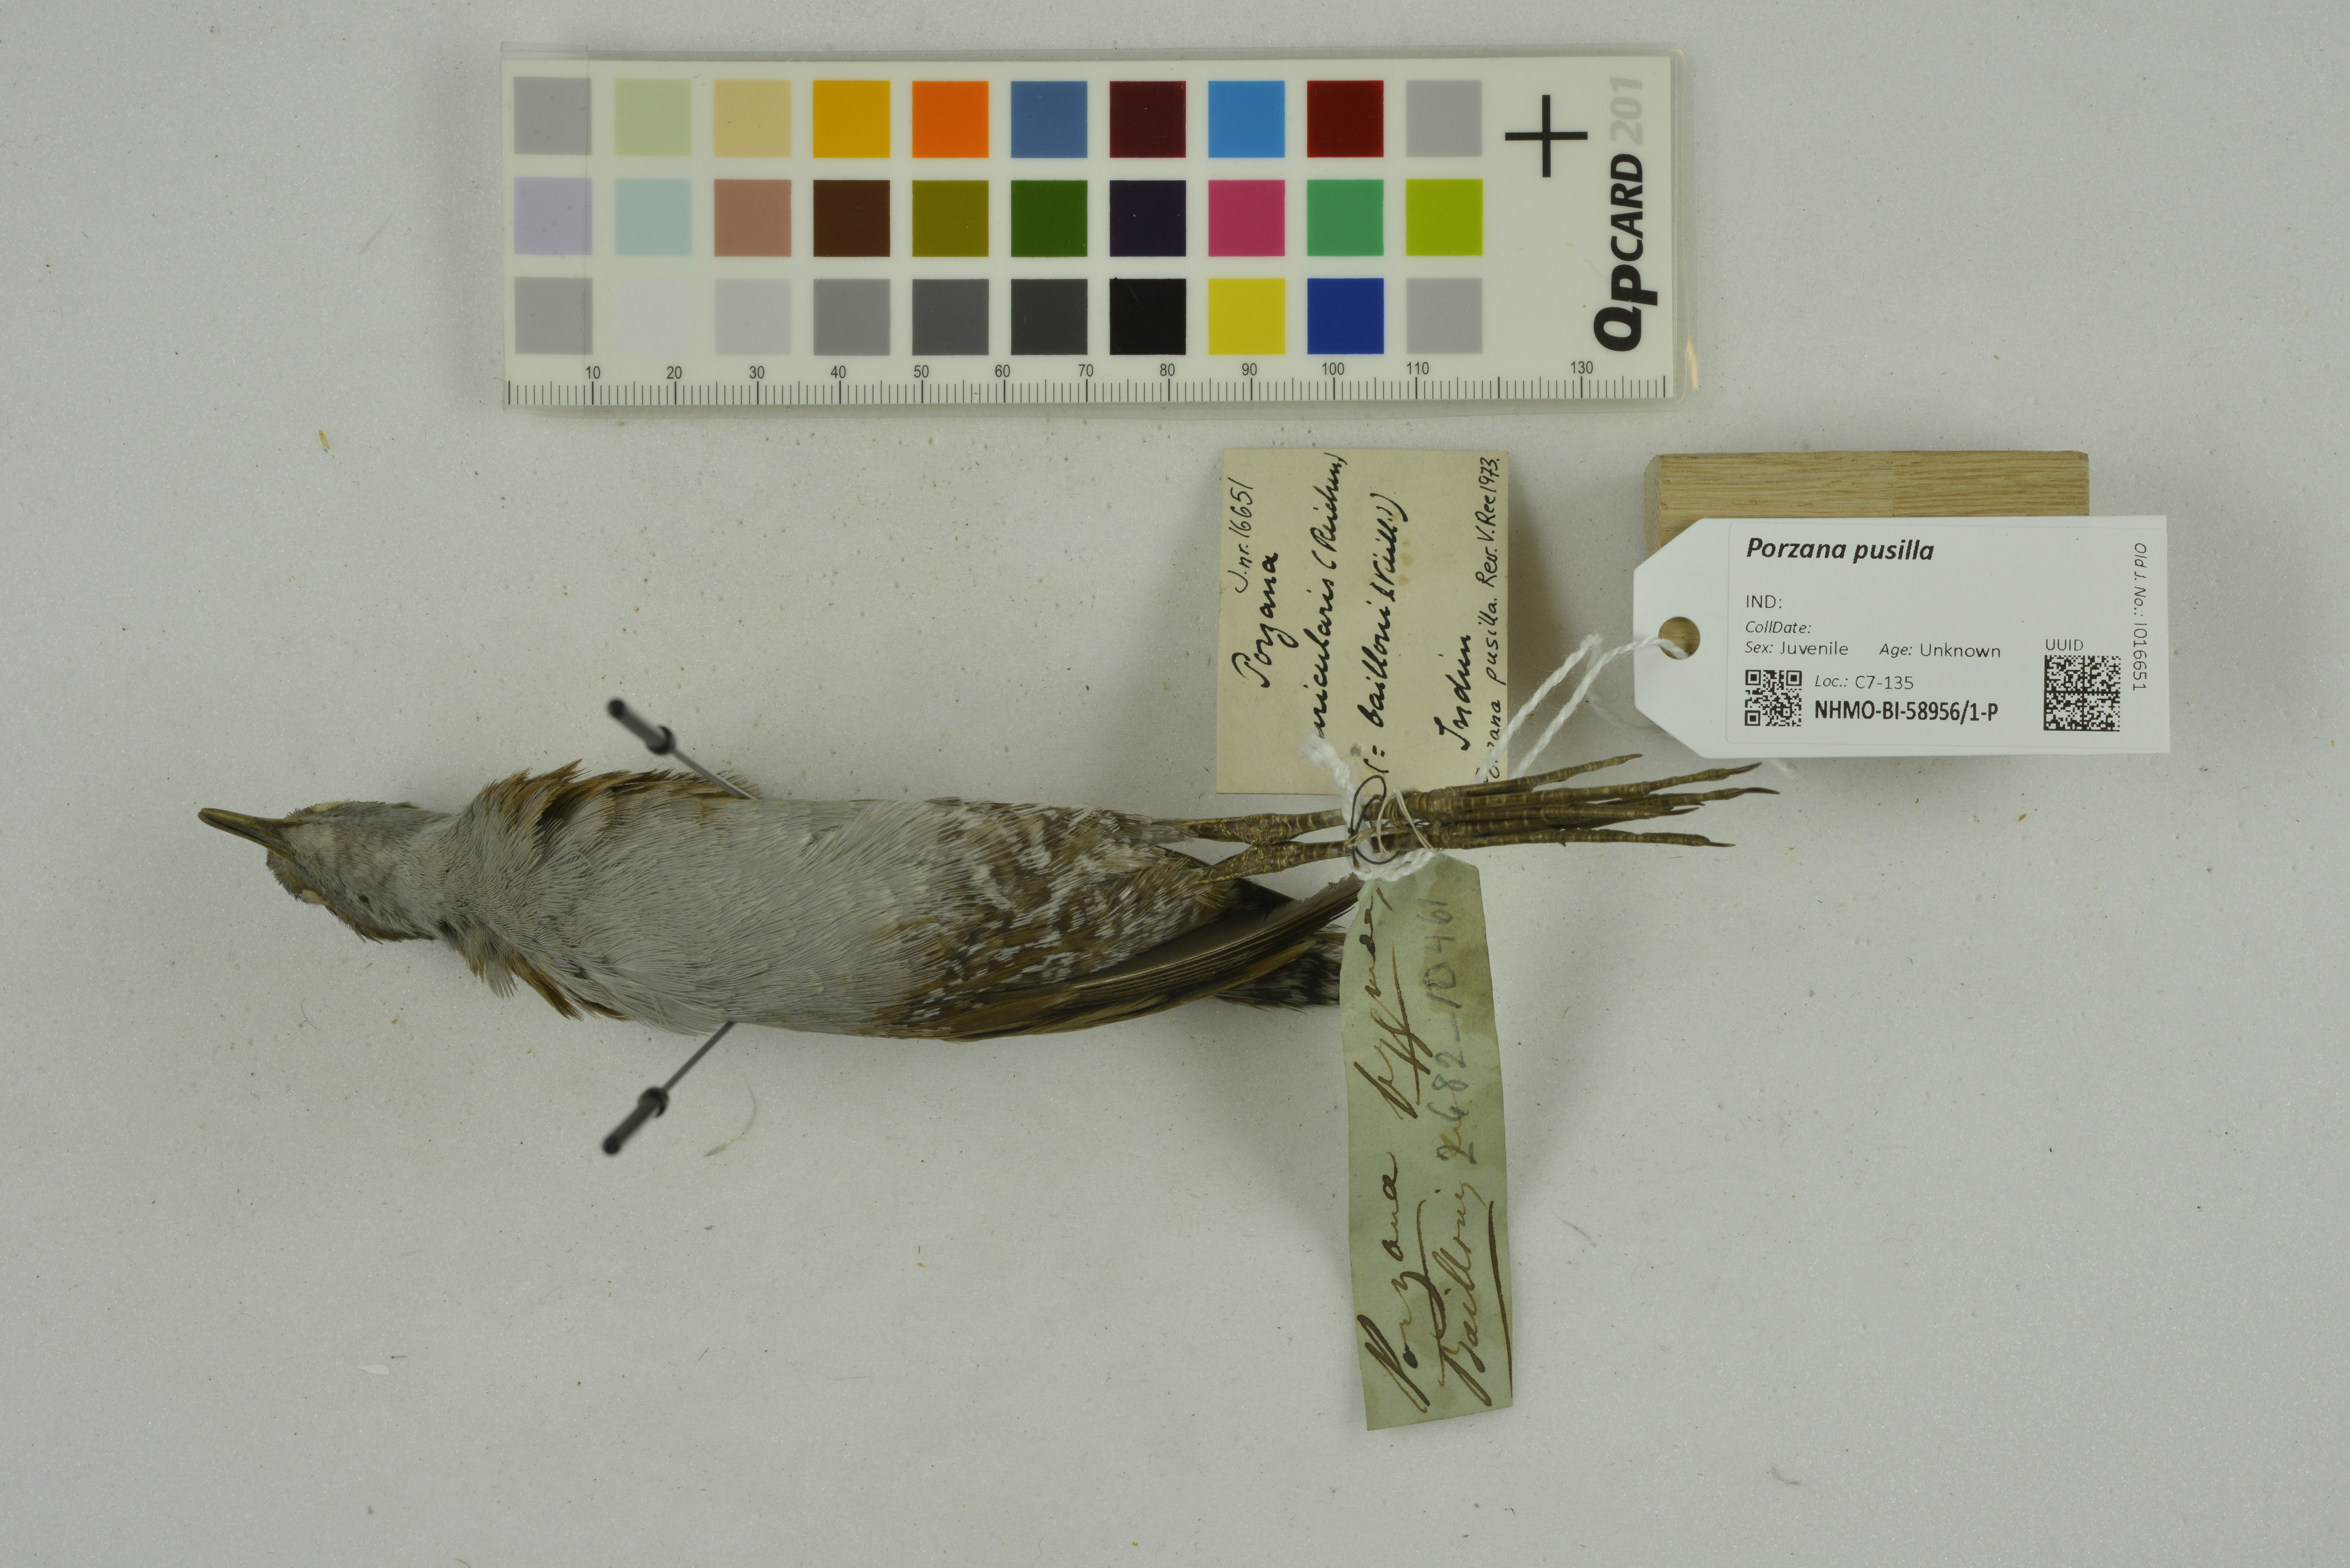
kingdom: Animalia
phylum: Chordata
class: Aves
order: Gruiformes
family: Rallidae
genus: Porzana
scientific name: Porzana pusilla
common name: Baillon's crake
